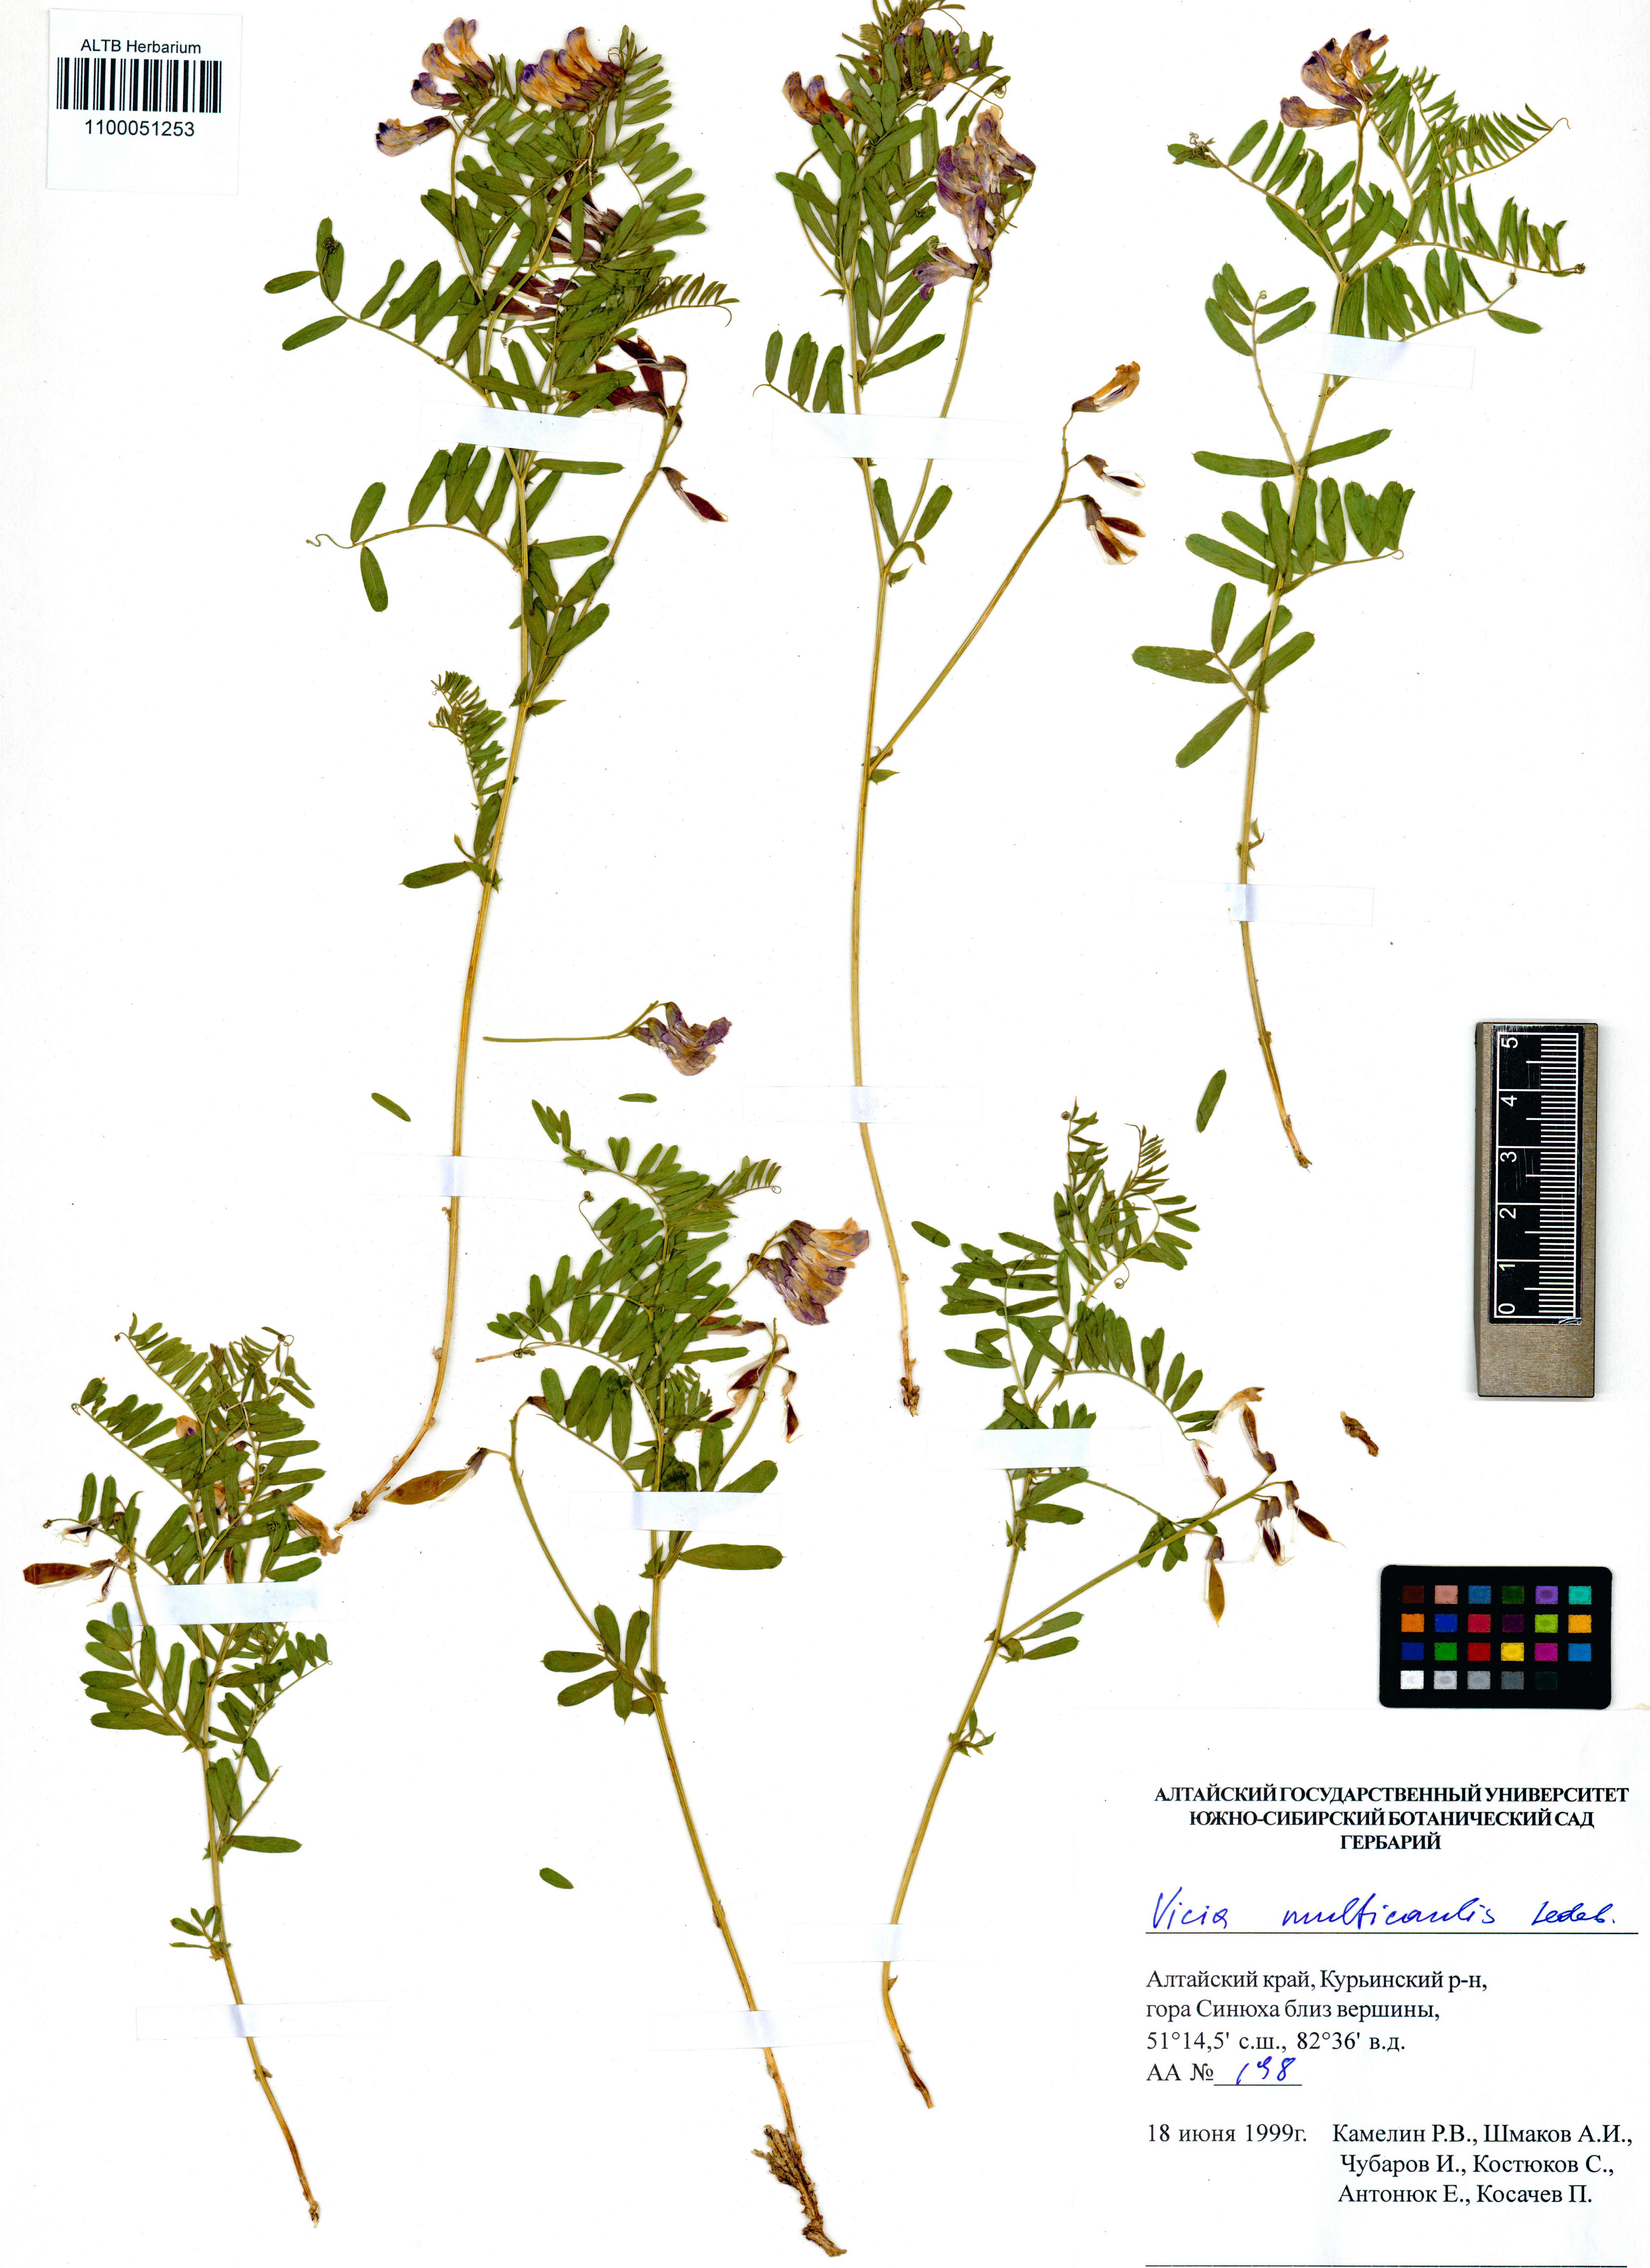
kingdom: Plantae
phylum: Tracheophyta
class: Magnoliopsida
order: Fabales
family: Fabaceae
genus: Vicia
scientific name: Vicia multicaulis
